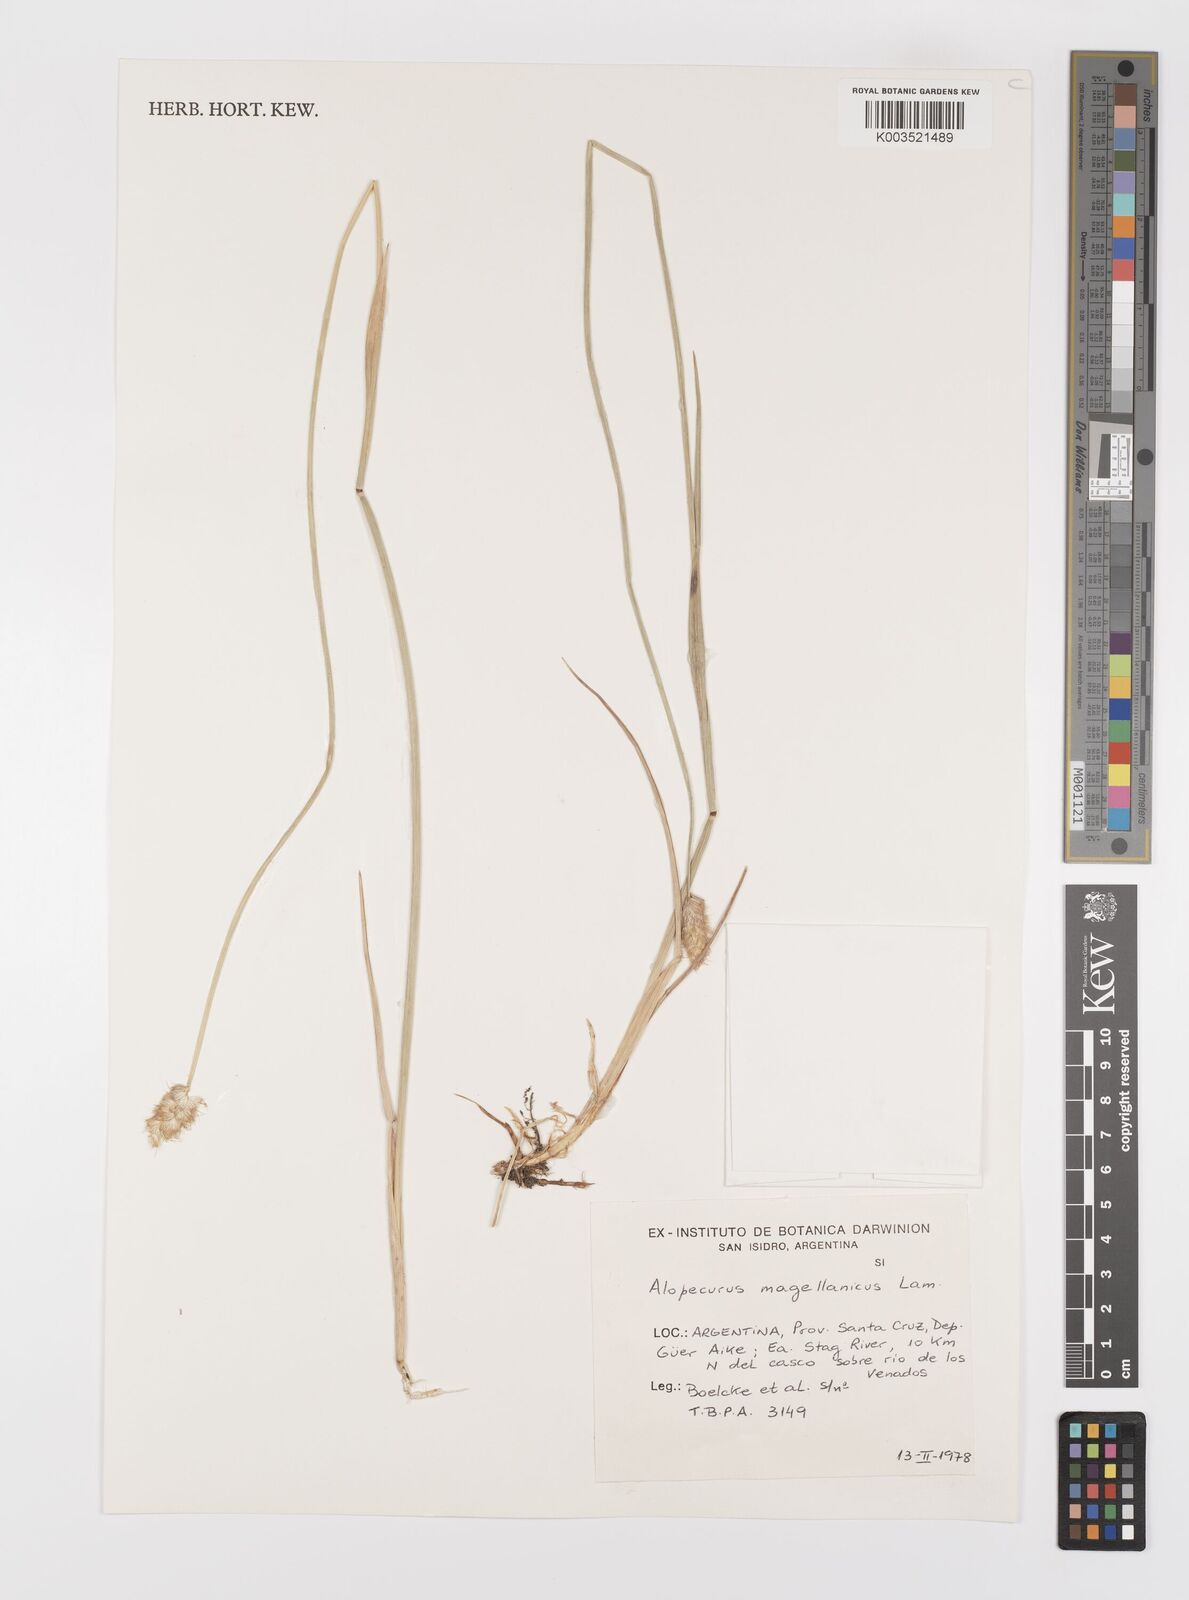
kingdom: Plantae
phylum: Tracheophyta
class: Liliopsida
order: Poales
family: Poaceae
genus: Alopecurus
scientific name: Alopecurus magellanicus
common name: Alpine foxtail
